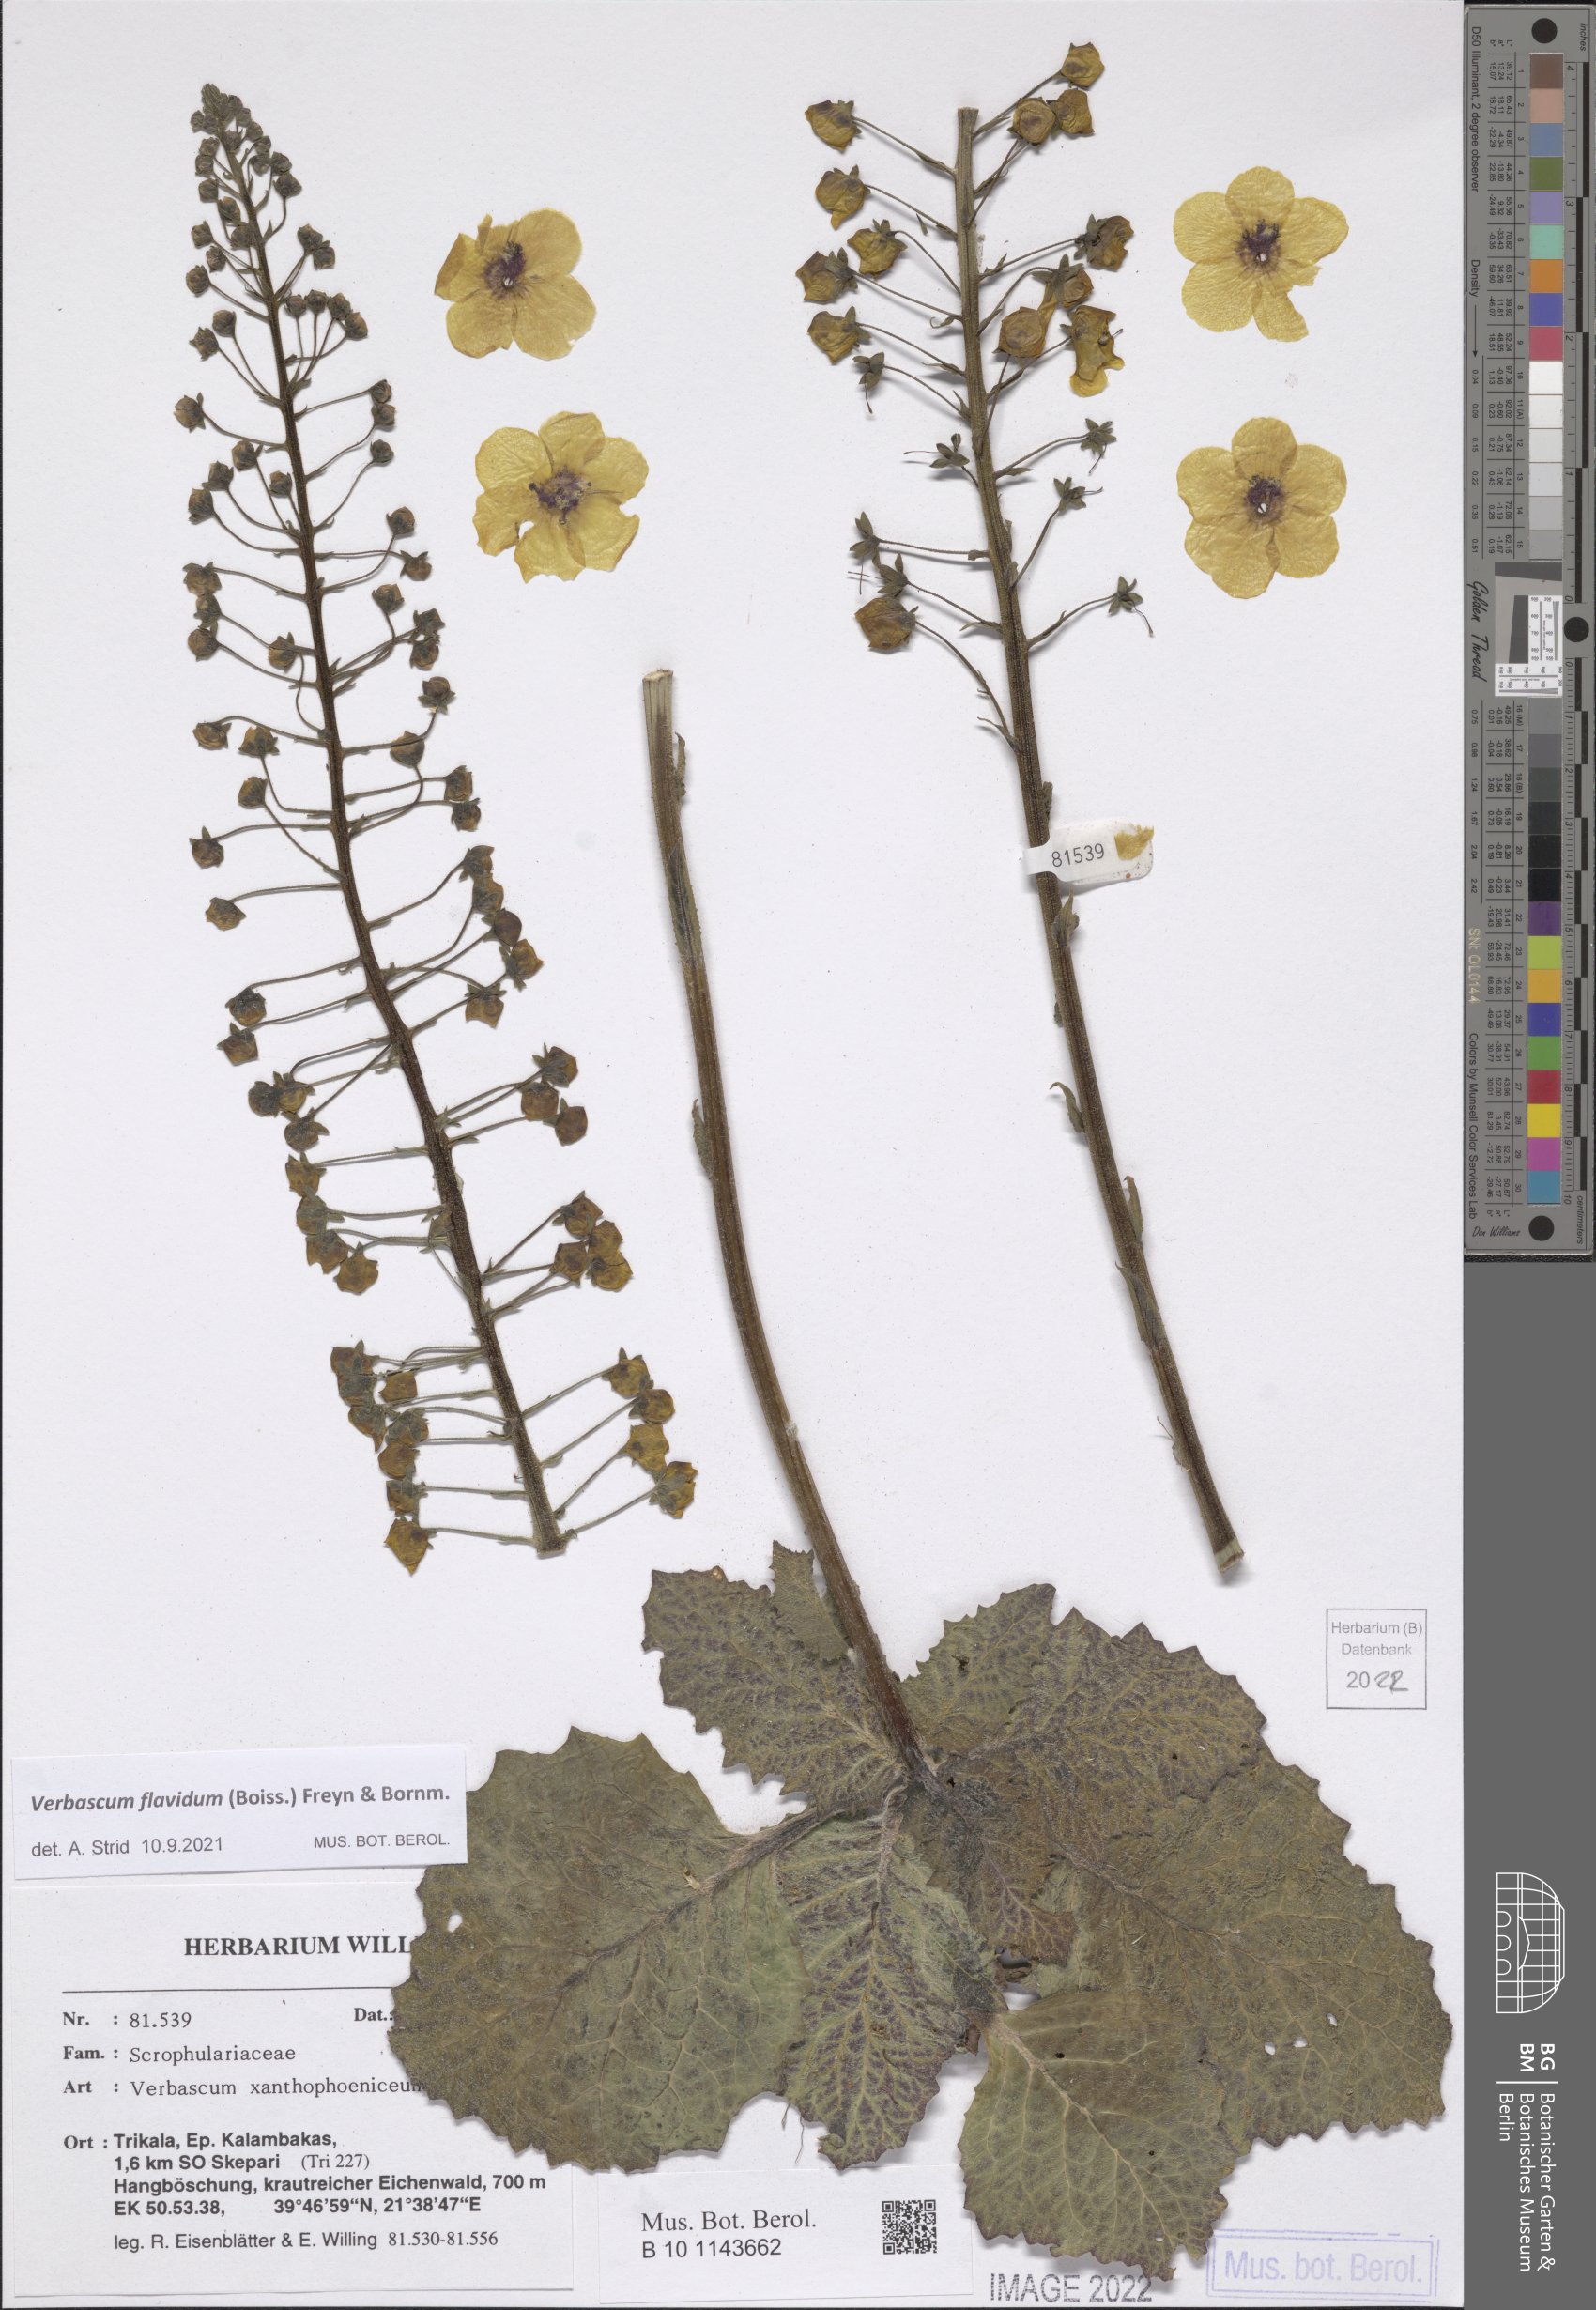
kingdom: Plantae
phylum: Tracheophyta
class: Magnoliopsida
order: Lamiales
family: Scrophulariaceae
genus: Verbascum
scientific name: Verbascum flavidum
